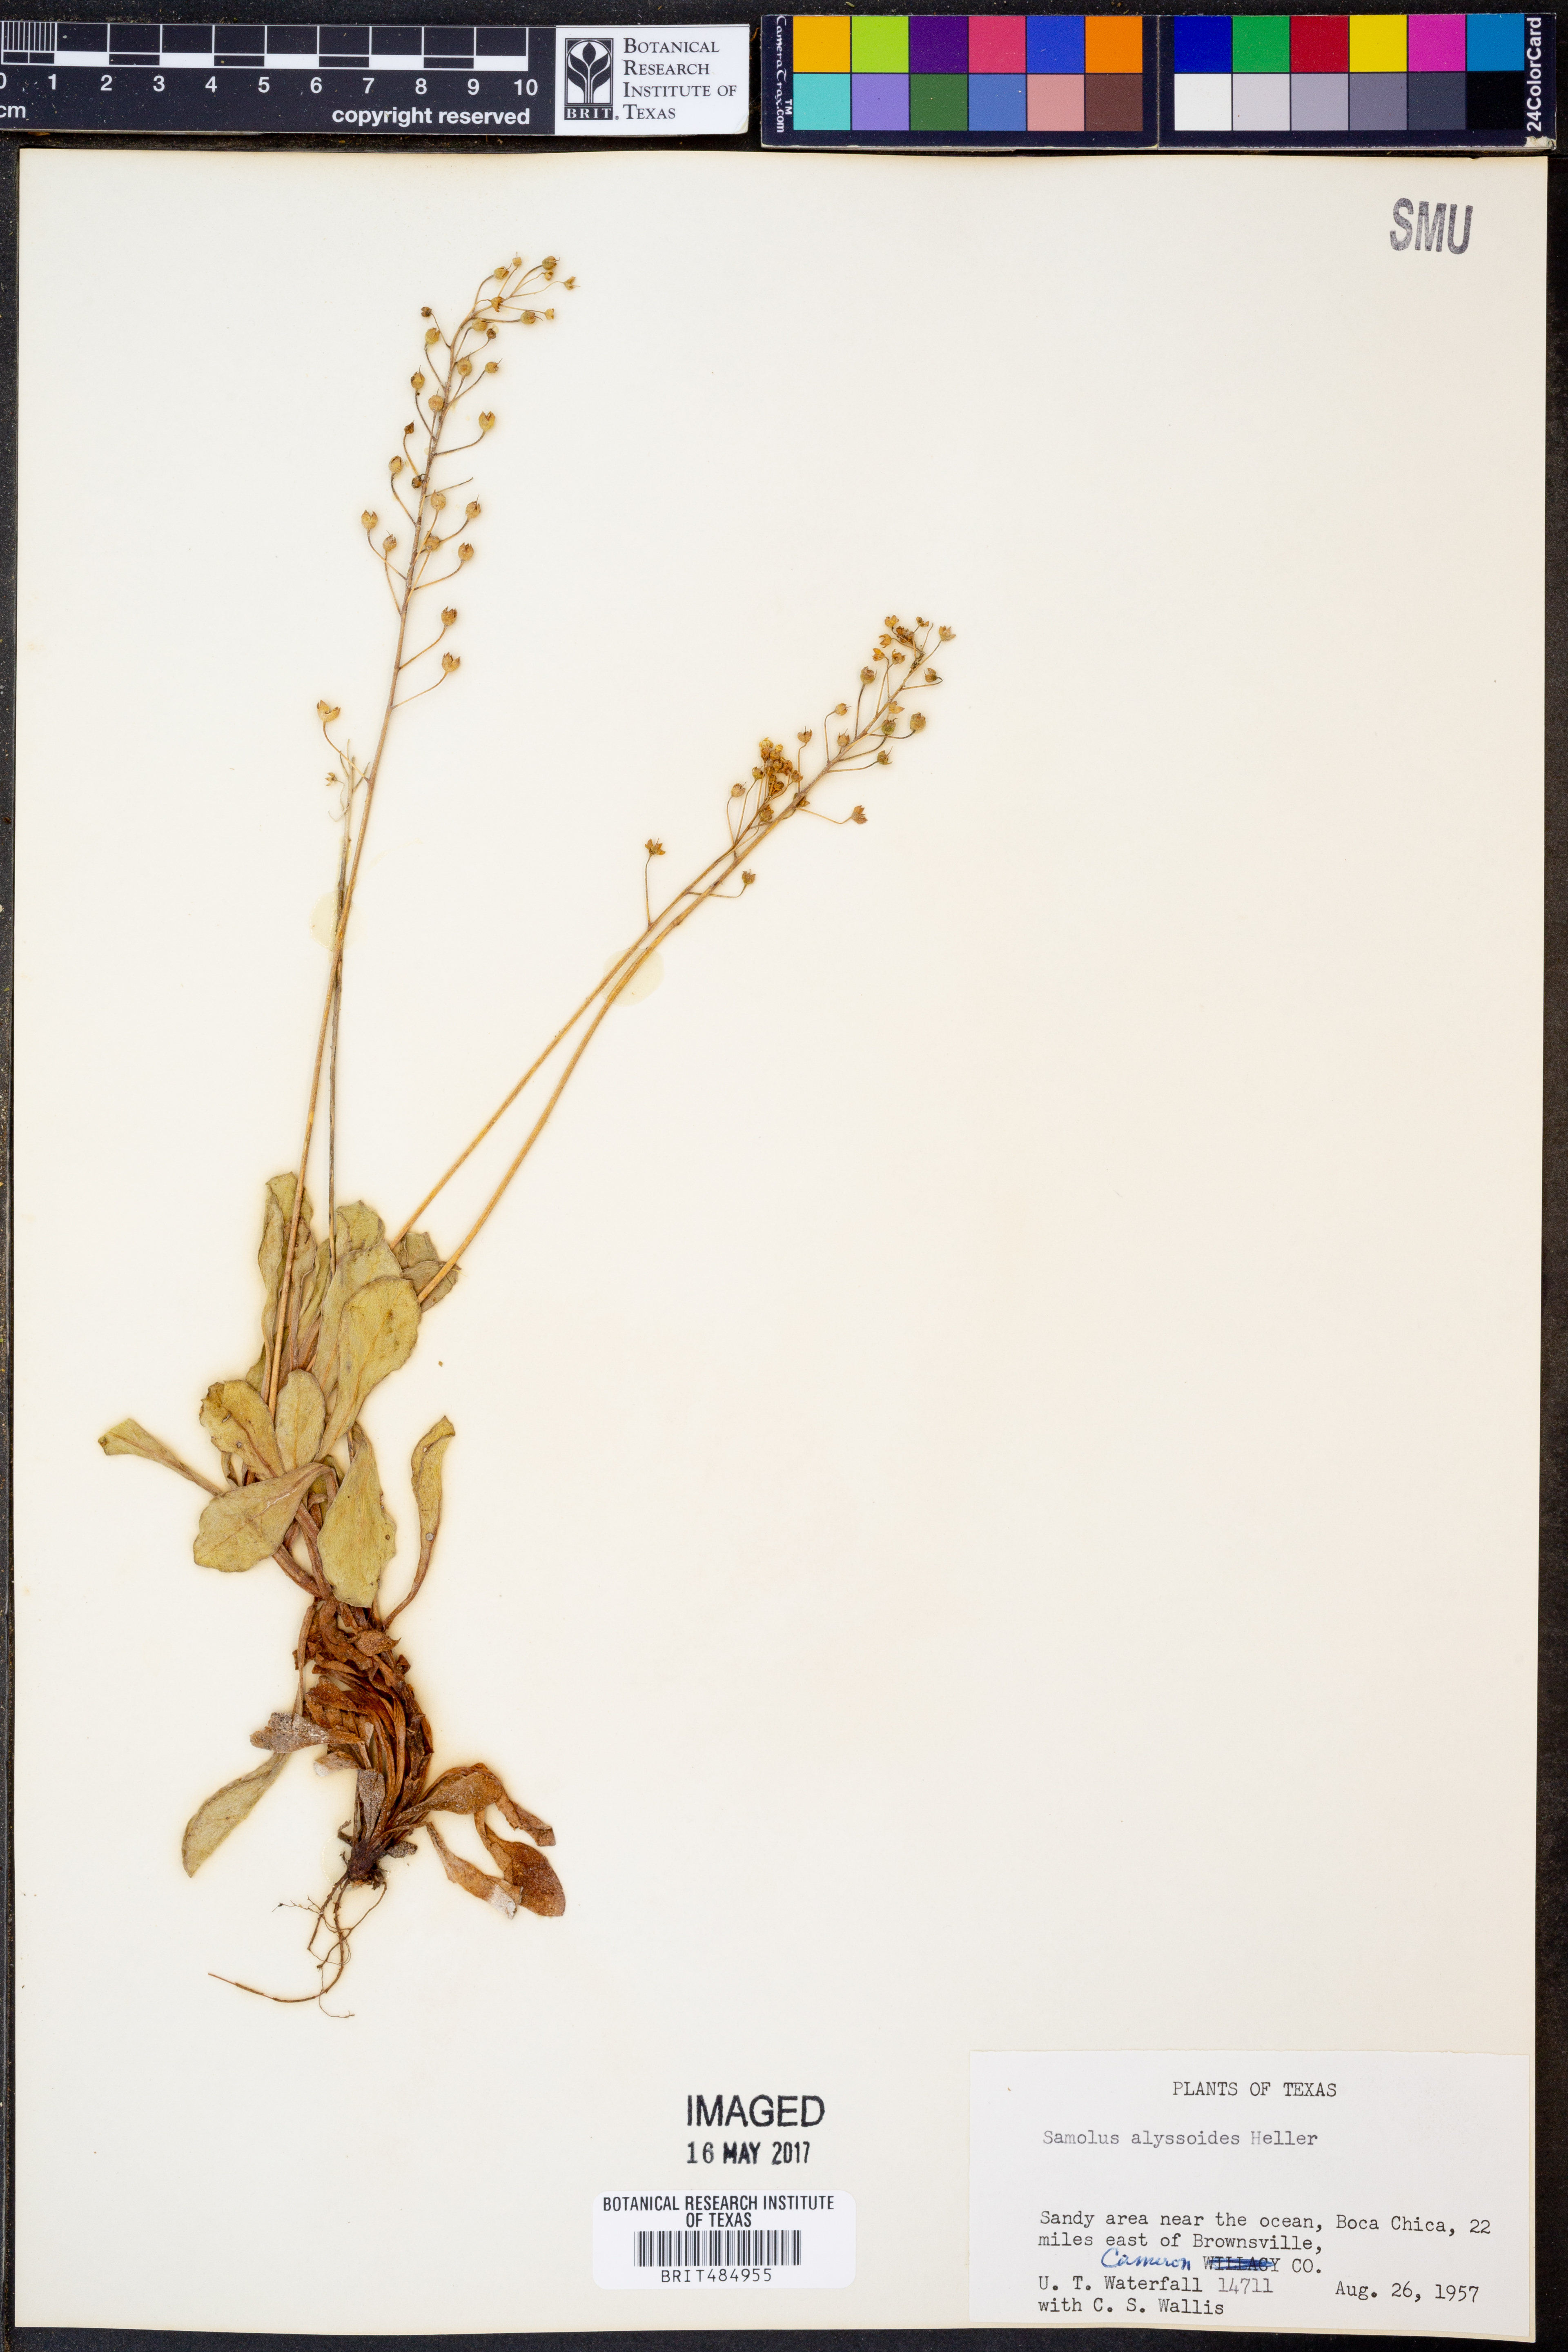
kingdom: Plantae
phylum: Tracheophyta
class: Magnoliopsida
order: Ericales
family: Primulaceae
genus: Samolus
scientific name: Samolus ebracteatus
